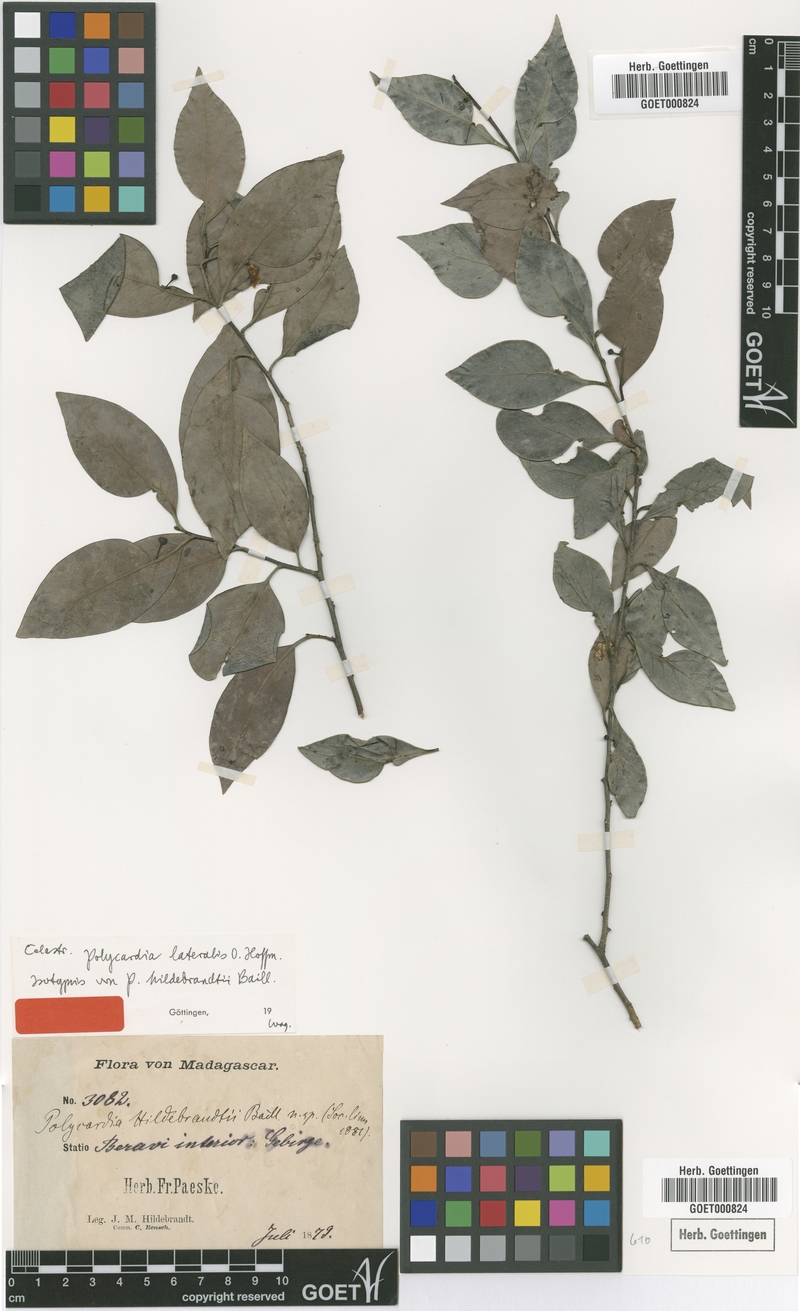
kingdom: Plantae
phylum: Tracheophyta
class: Magnoliopsida
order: Celastrales
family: Celastraceae
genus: Polycardia
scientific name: Polycardia lateralis
